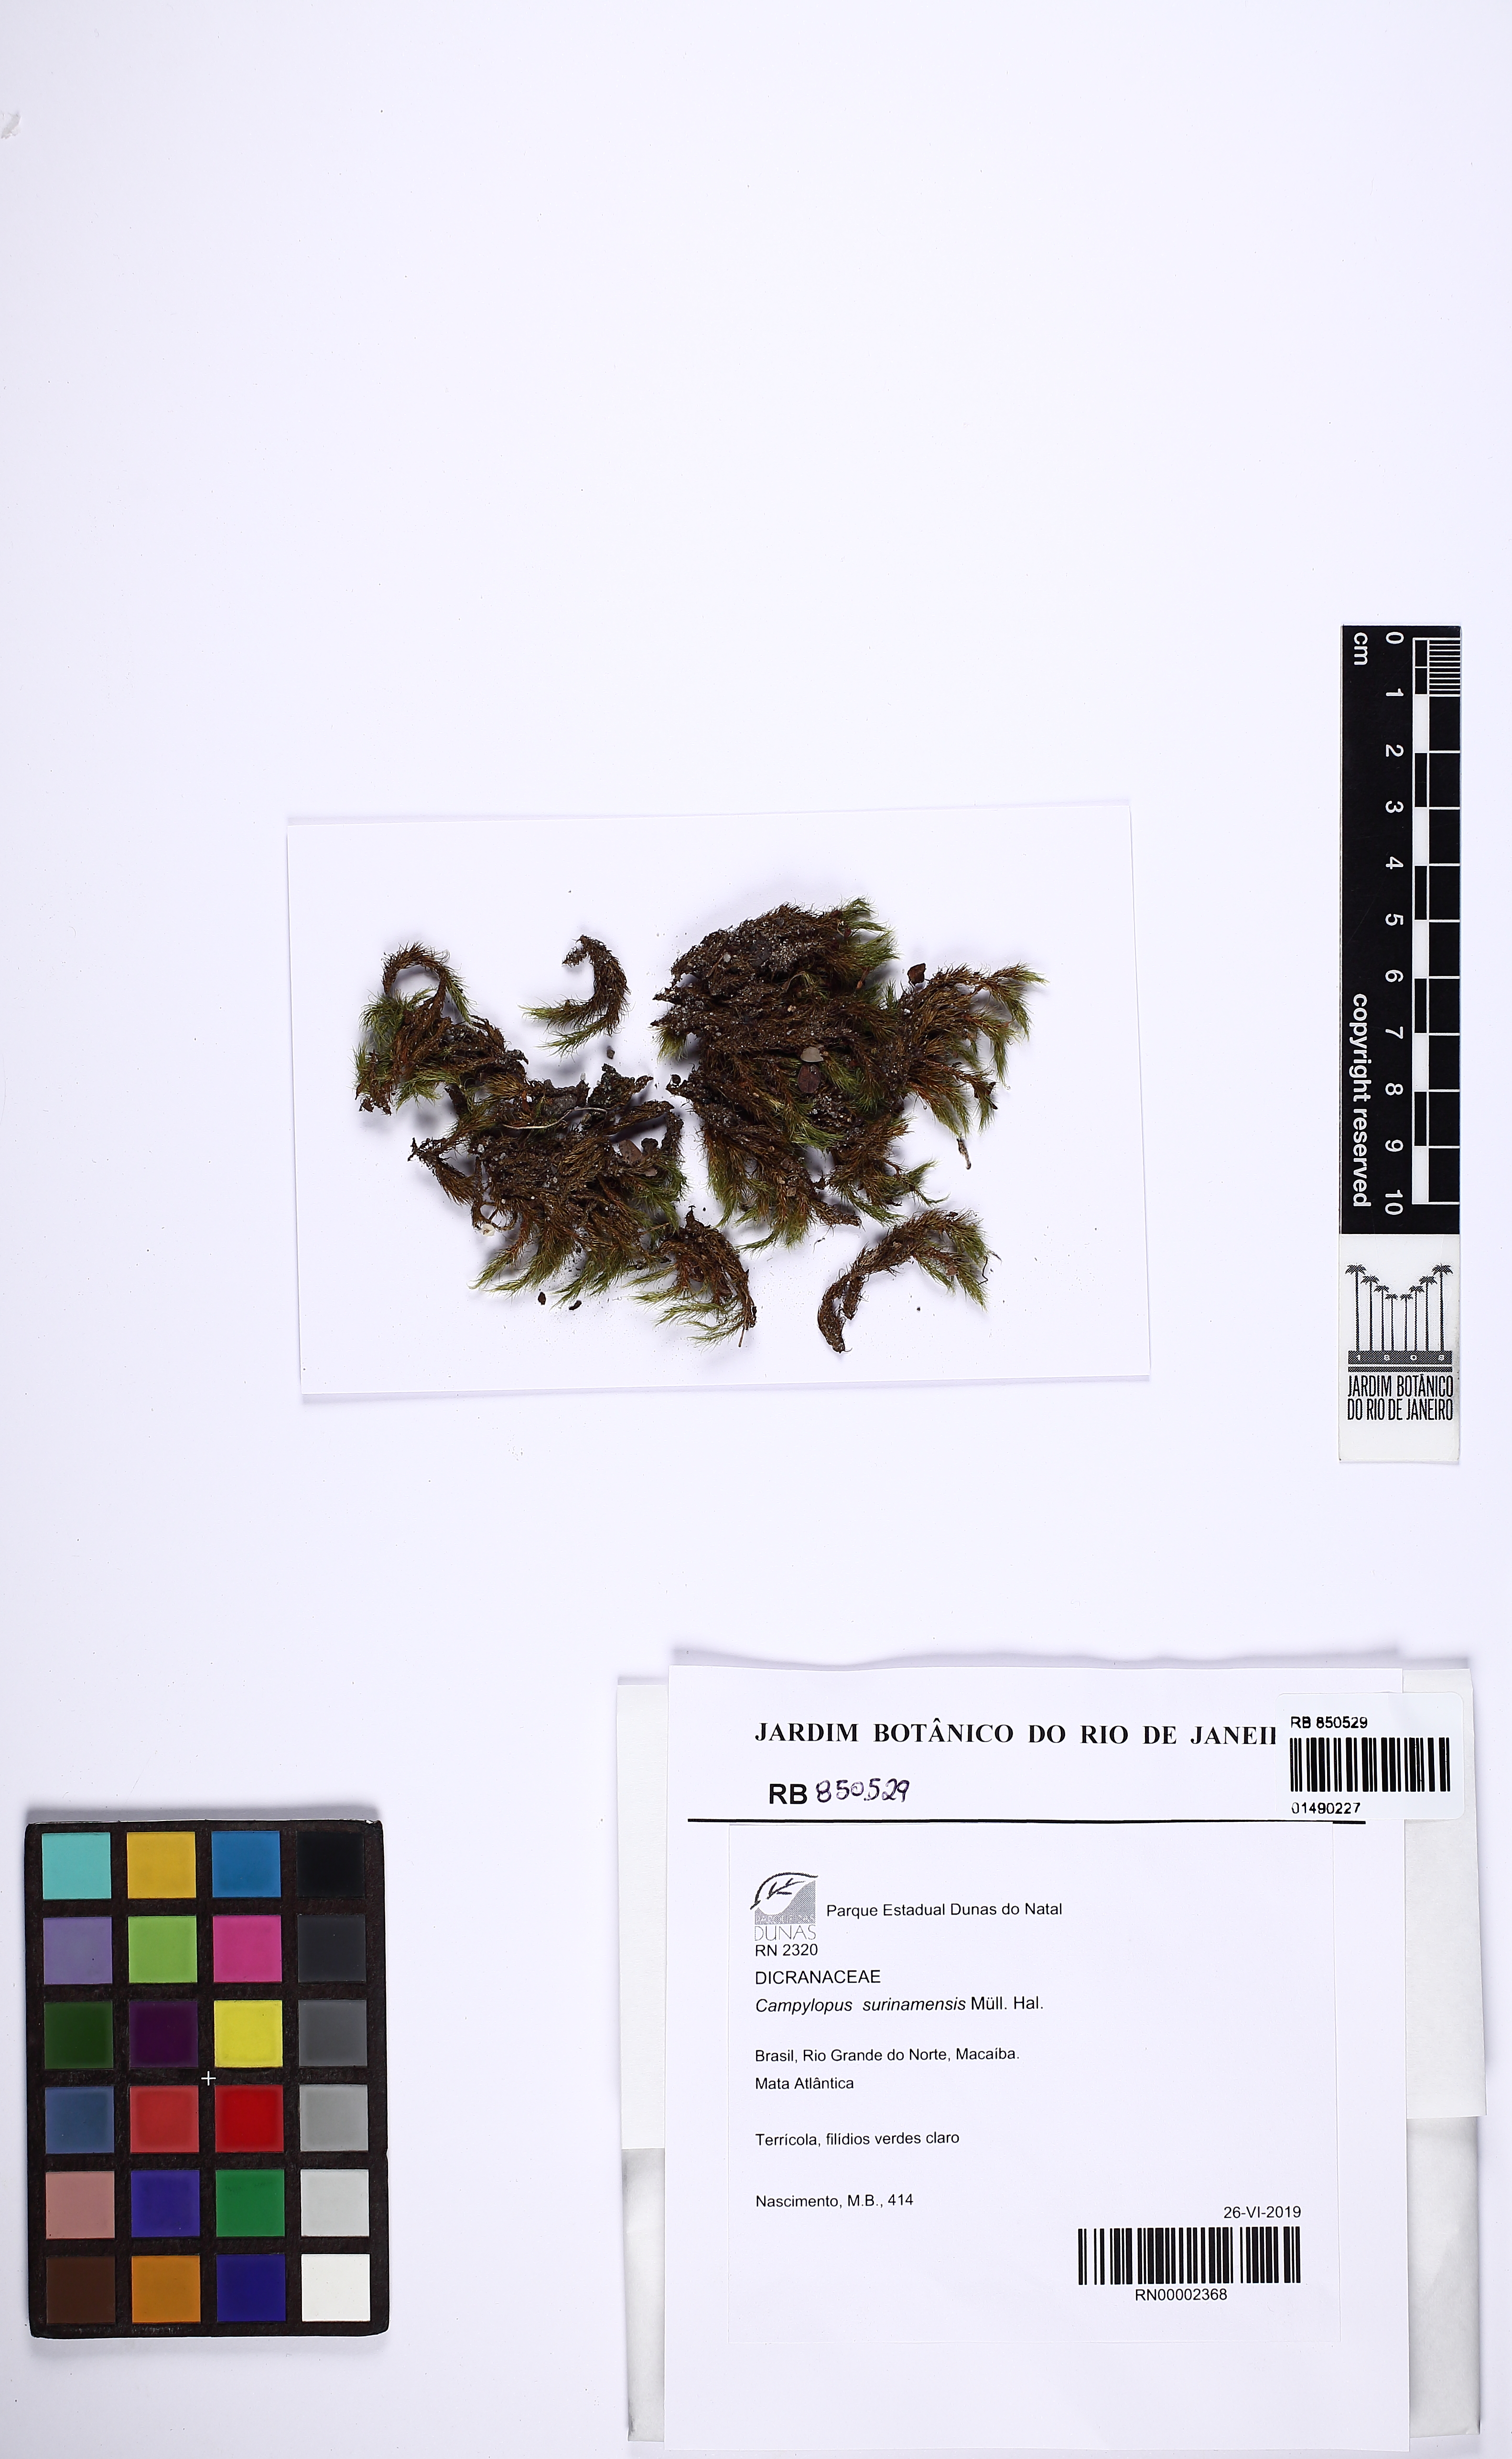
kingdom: Plantae
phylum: Bryophyta
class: Bryopsida
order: Dicranales
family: Leucobryaceae
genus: Campylopus
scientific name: Campylopus surinamensis
